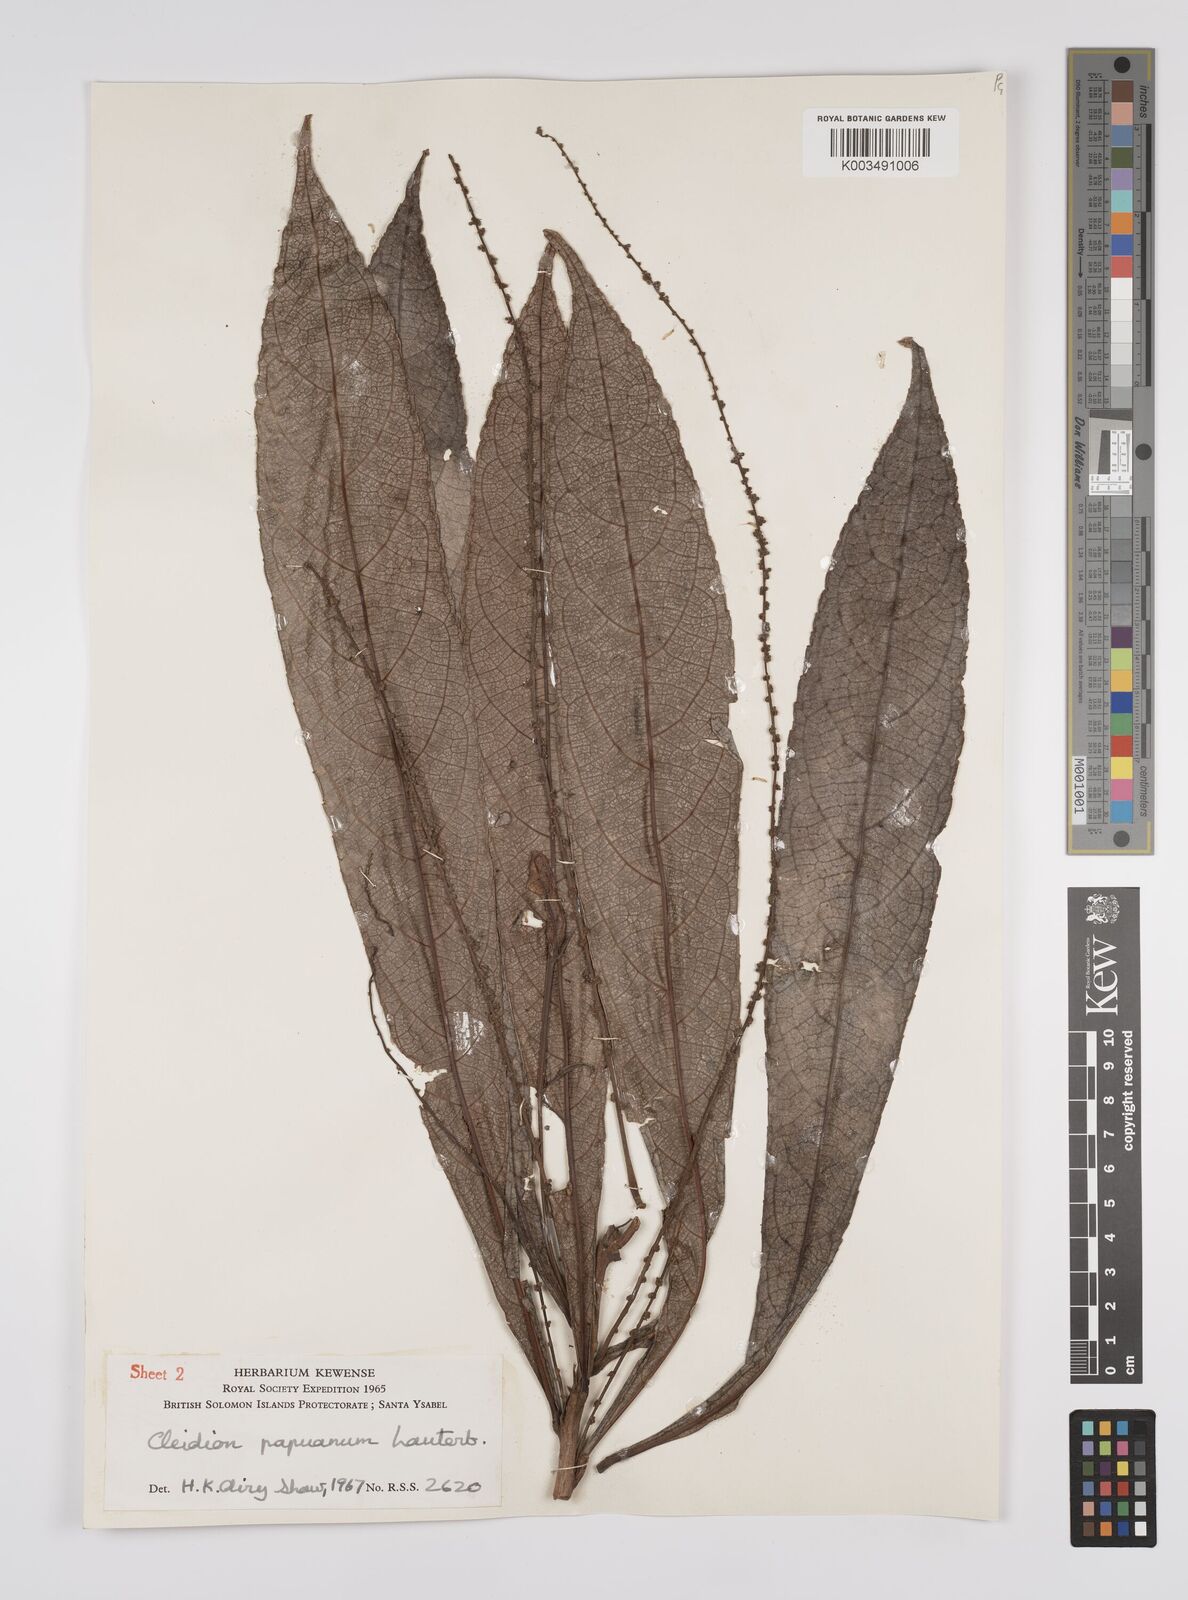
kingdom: Plantae
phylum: Tracheophyta
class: Magnoliopsida
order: Malpighiales
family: Euphorbiaceae
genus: Cleidion
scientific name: Cleidion papuanum
